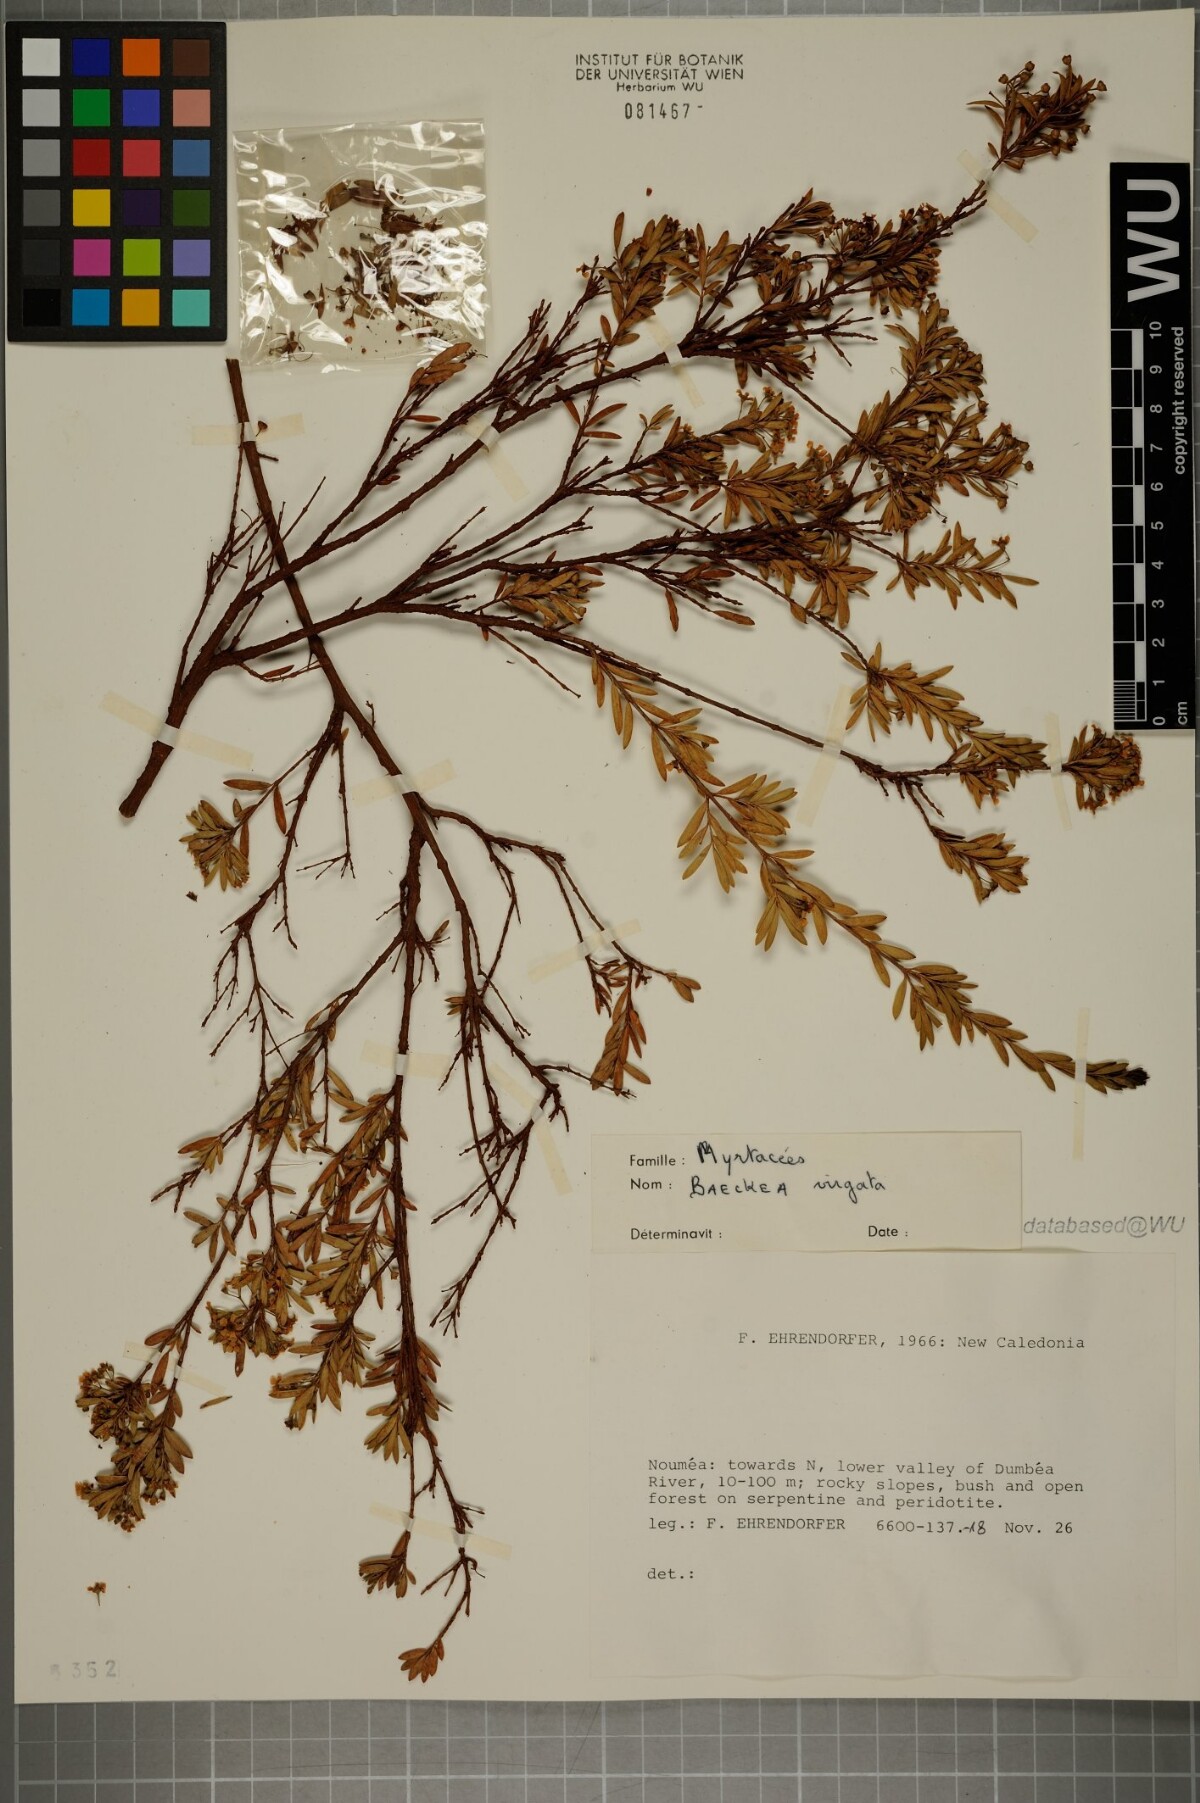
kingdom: Plantae
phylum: Tracheophyta
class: Magnoliopsida
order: Myrtales
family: Myrtaceae
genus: Sannantha
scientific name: Sannantha virgata
